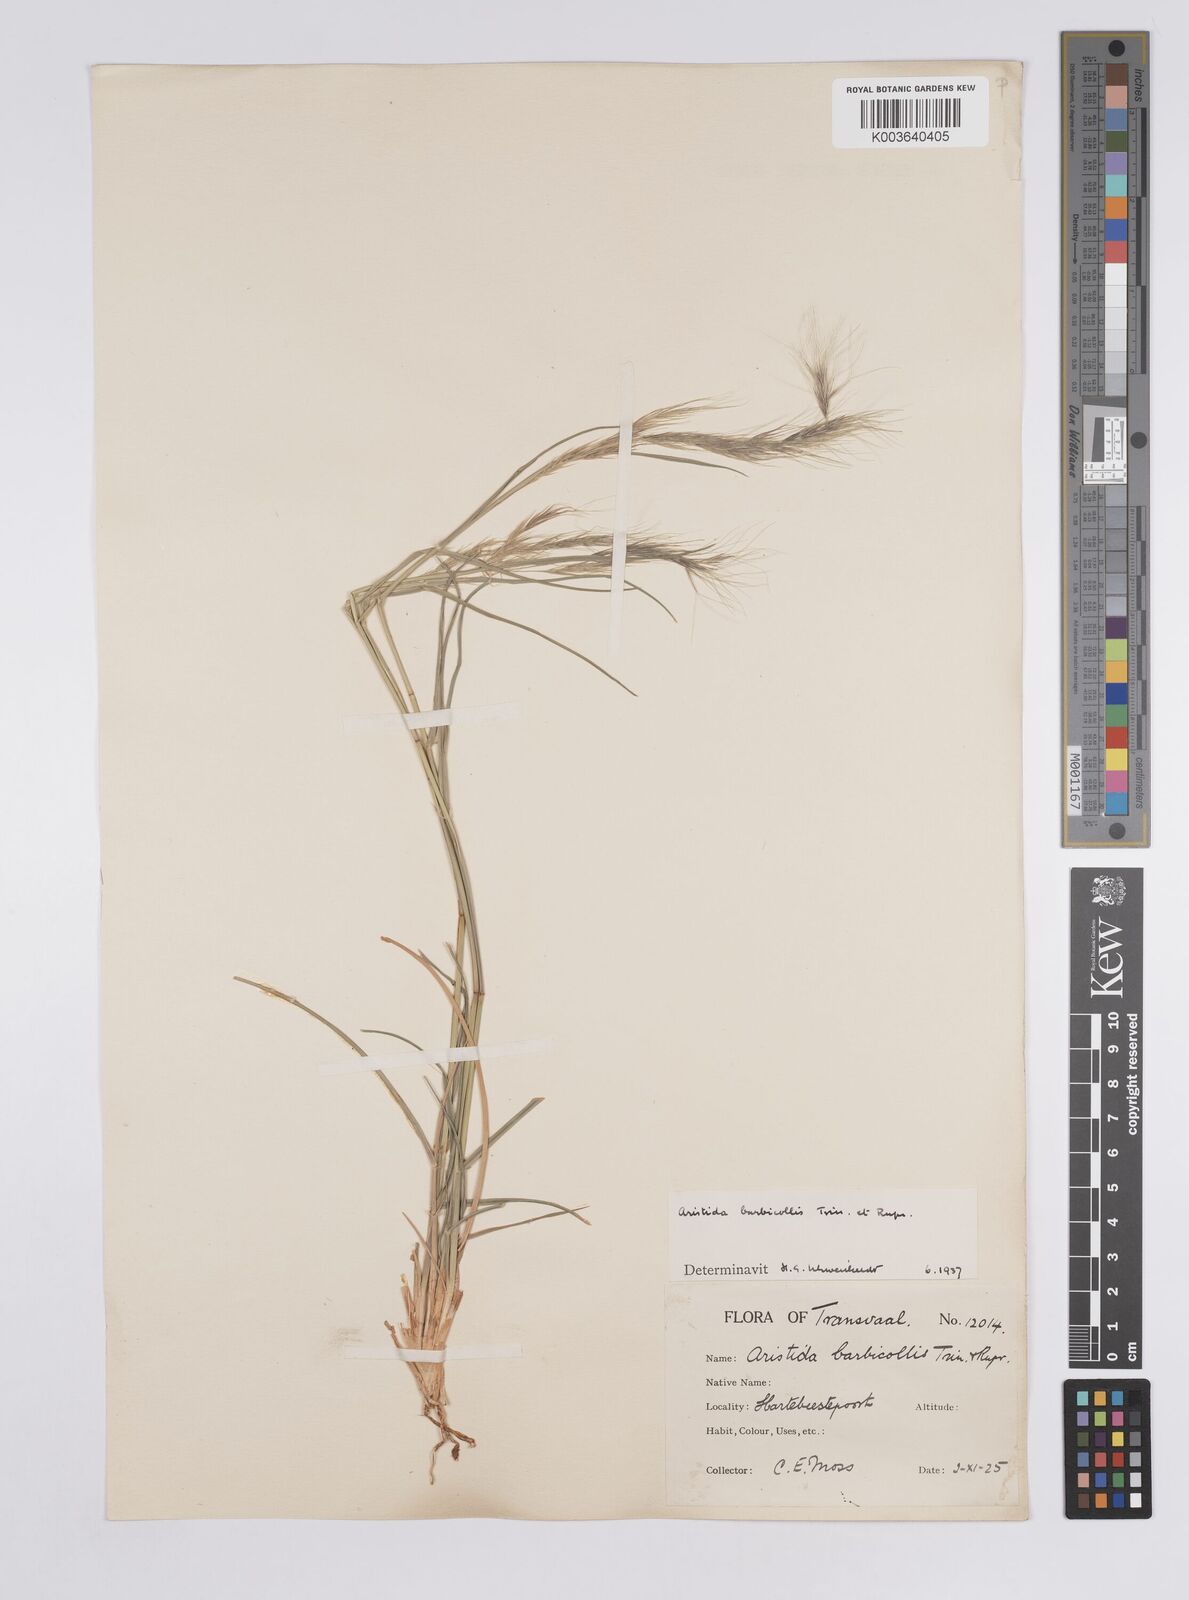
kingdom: Plantae
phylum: Tracheophyta
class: Liliopsida
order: Poales
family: Poaceae
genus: Aristida
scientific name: Aristida barbicollis
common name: Spreading prickle grass
